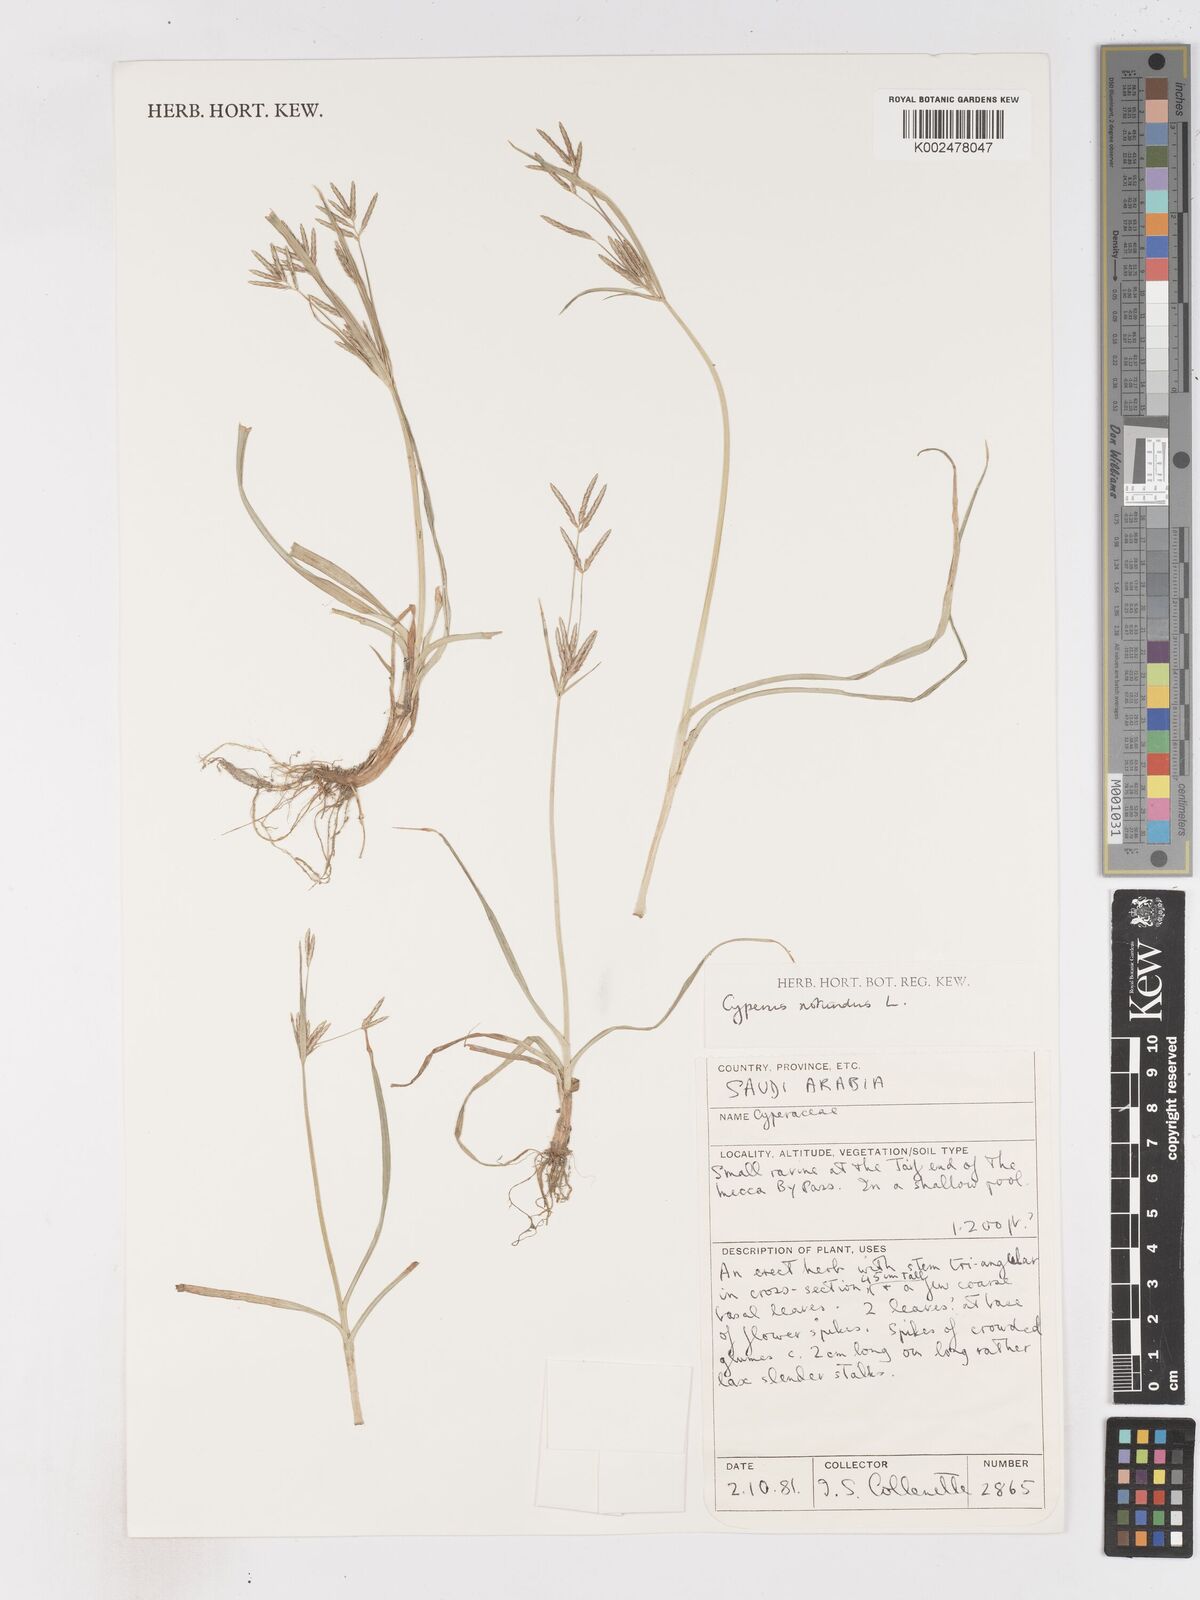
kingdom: Plantae
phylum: Tracheophyta
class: Liliopsida
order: Poales
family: Cyperaceae
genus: Cyperus
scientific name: Cyperus rotundus
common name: Nutgrass
